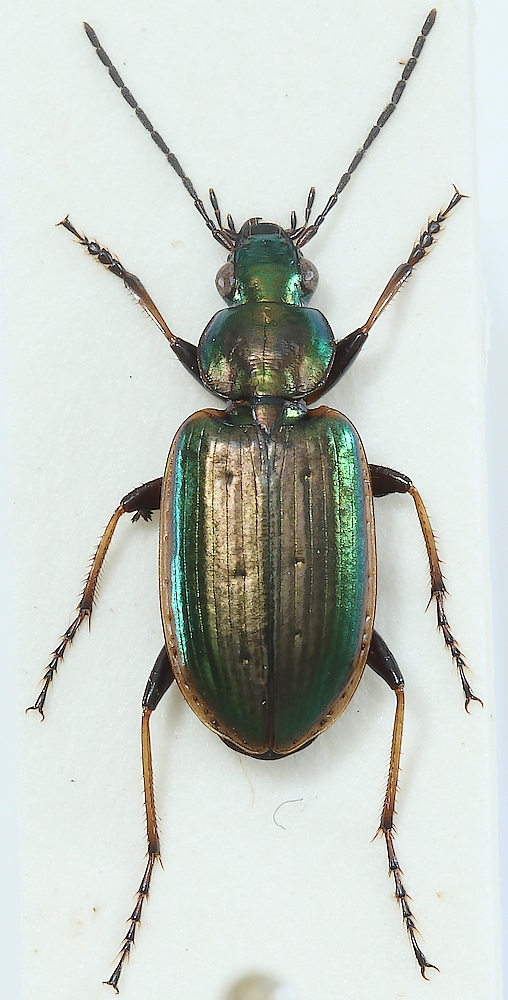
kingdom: Fungi
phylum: Ascomycota
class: Laboulbeniomycetes
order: Laboulbeniales
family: Laboulbeniaceae
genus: Laboulbenia
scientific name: Laboulbenia flagellata
